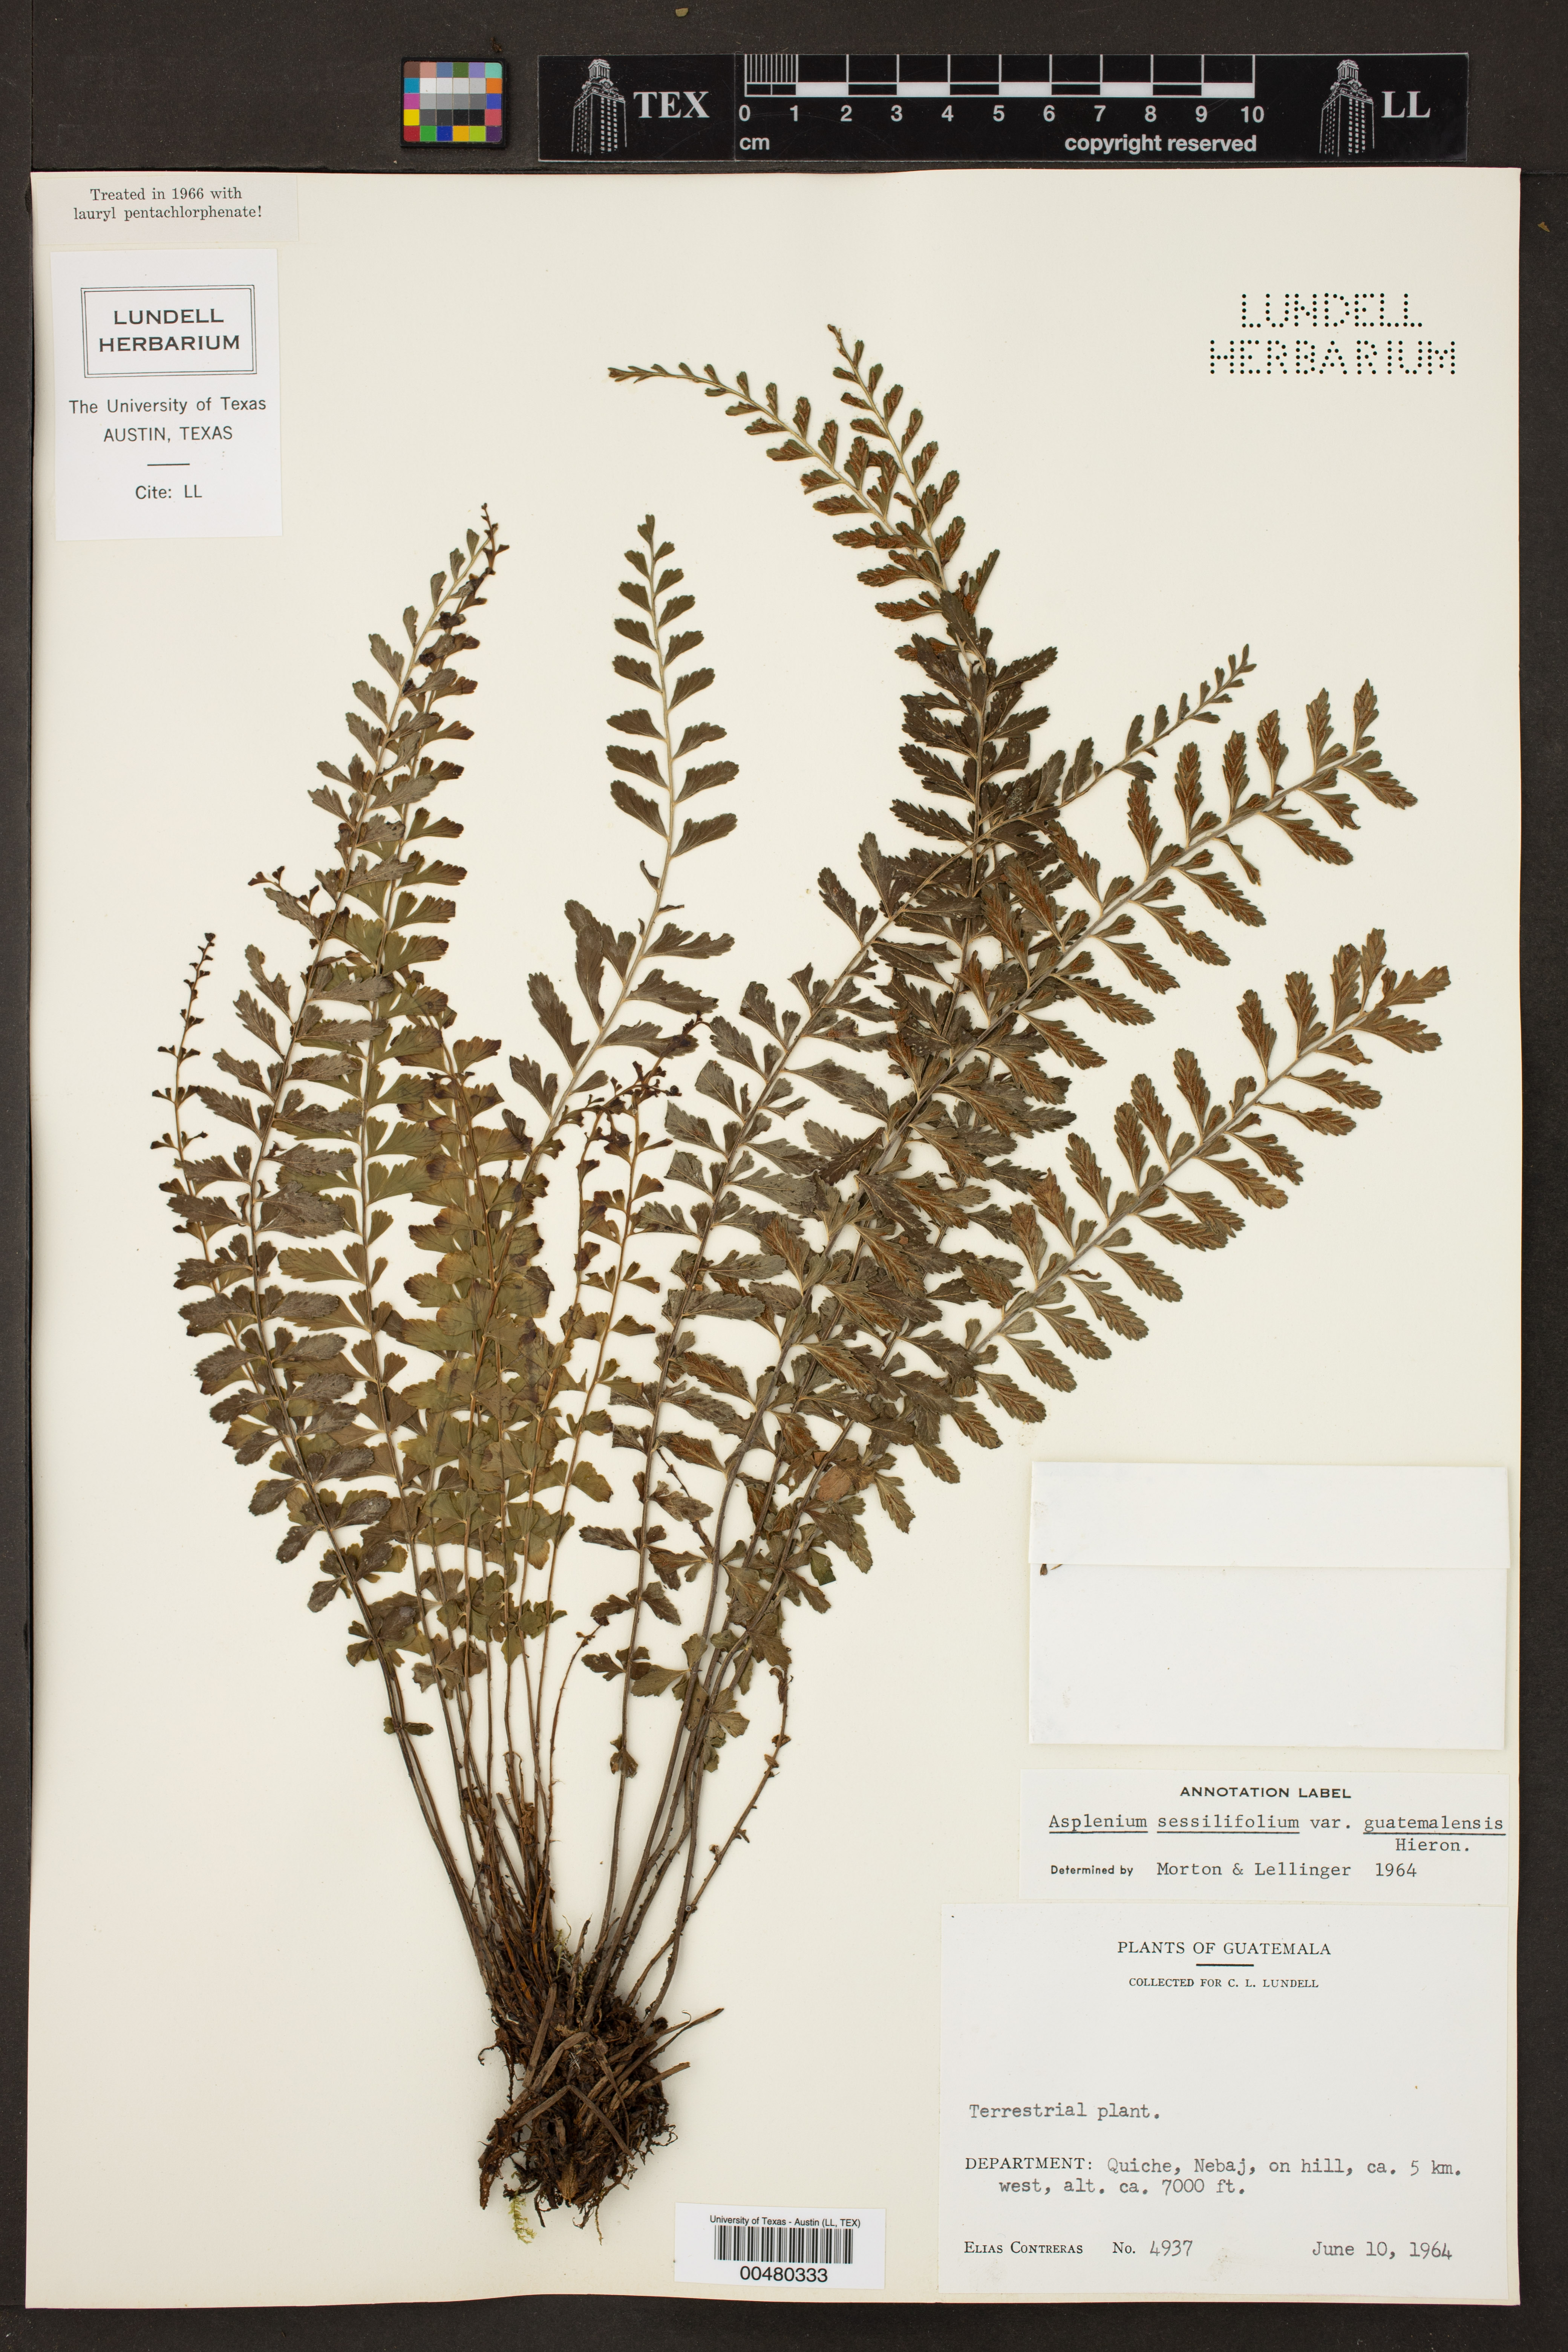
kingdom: Plantae
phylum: Tracheophyta
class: Polypodiopsida
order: Polypodiales
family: Aspleniaceae
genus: Asplenium
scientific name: Asplenium sessilifolium
